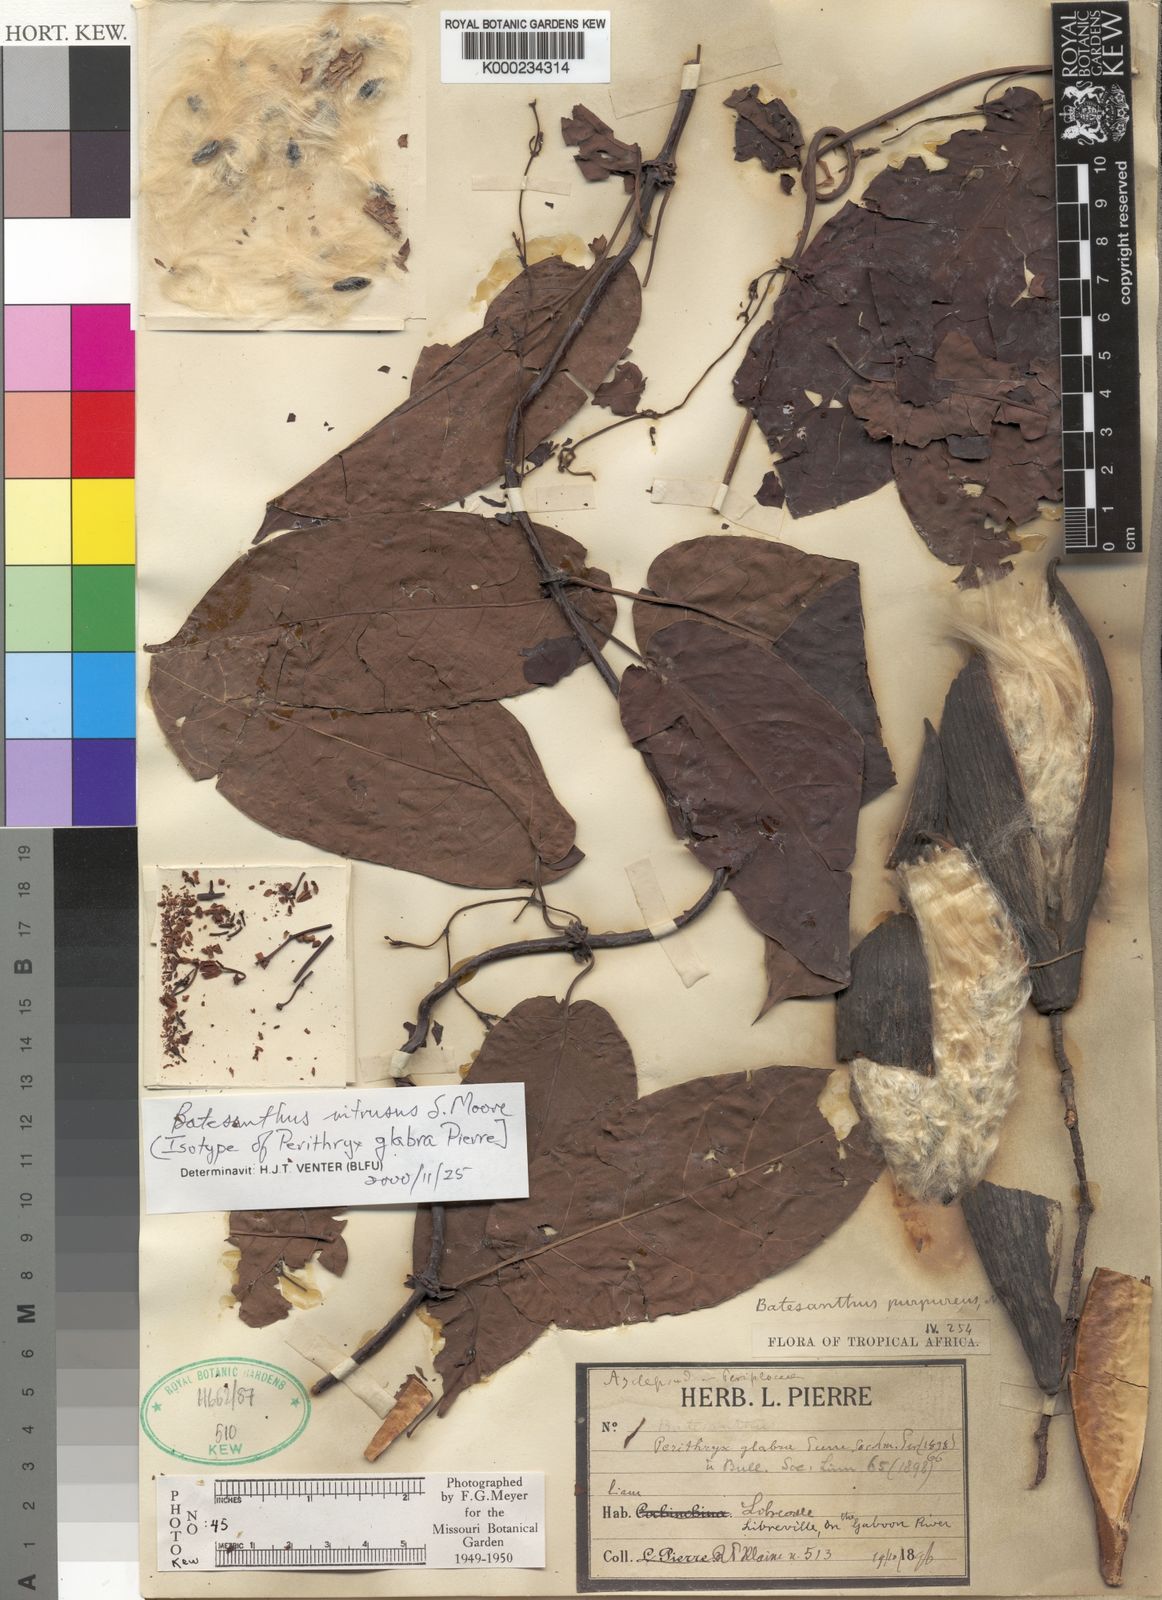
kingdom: Plantae
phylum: Tracheophyta
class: Magnoliopsida
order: Gentianales
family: Apocynaceae
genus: Batesanthus
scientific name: Batesanthus purpureus
